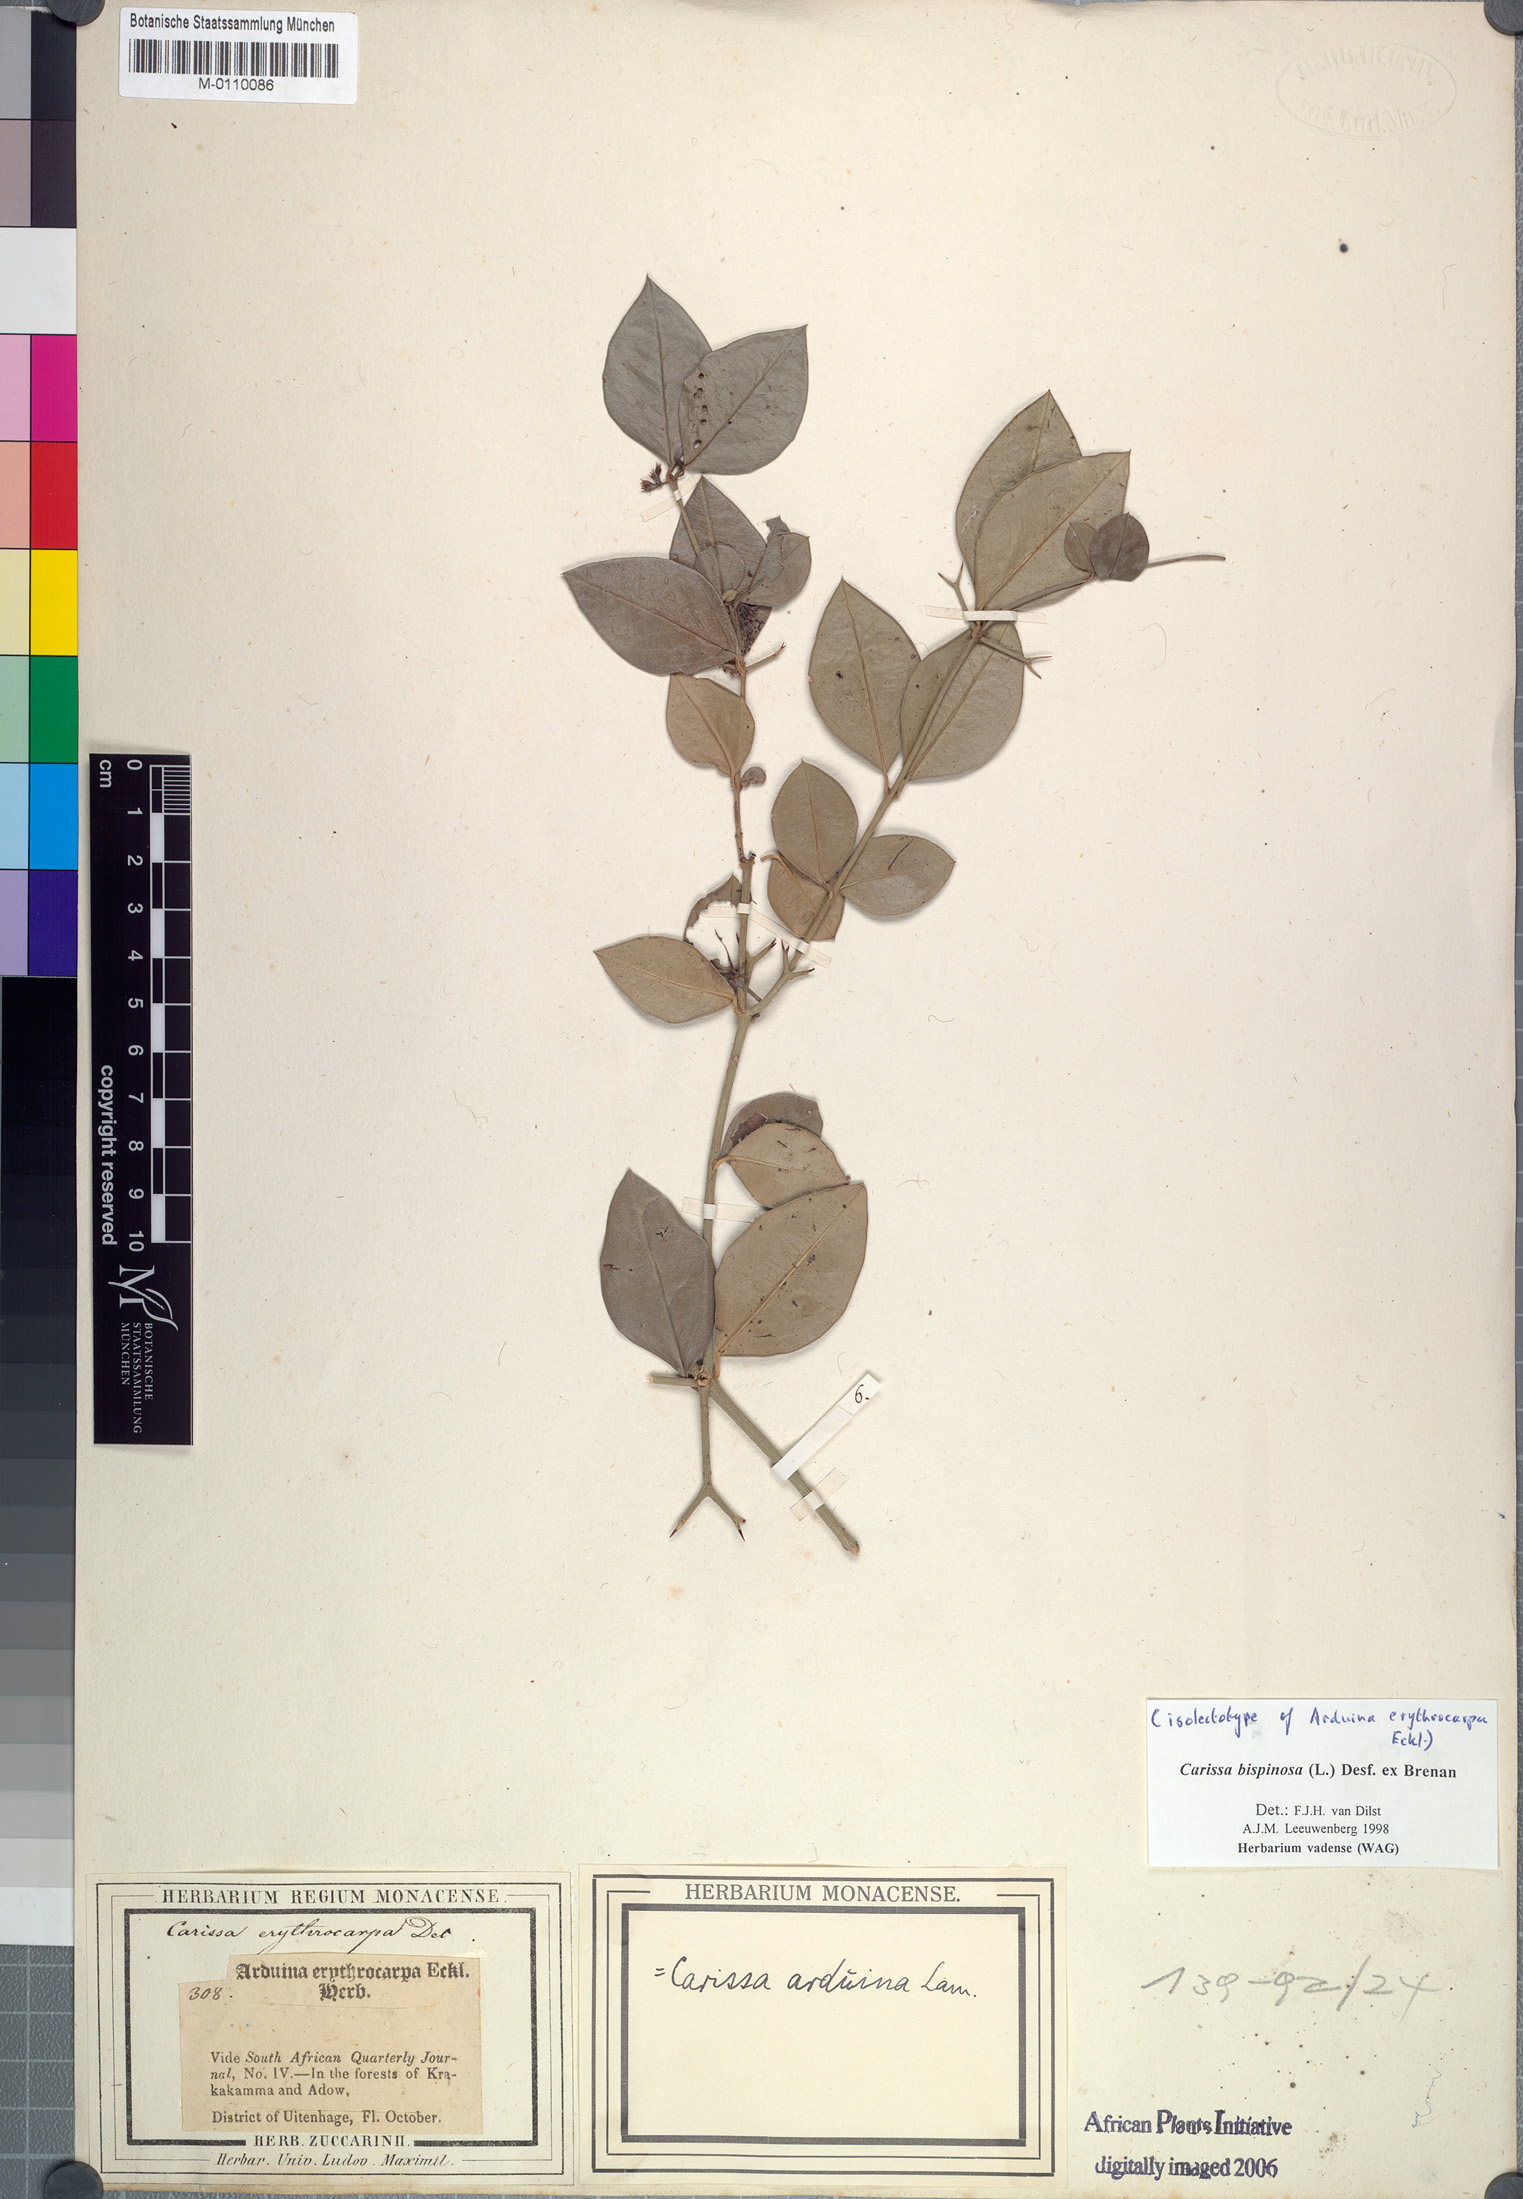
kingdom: Plantae
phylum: Tracheophyta
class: Magnoliopsida
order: Gentianales
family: Apocynaceae
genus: Carissa
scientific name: Carissa bispinosa
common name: Forest num-num
